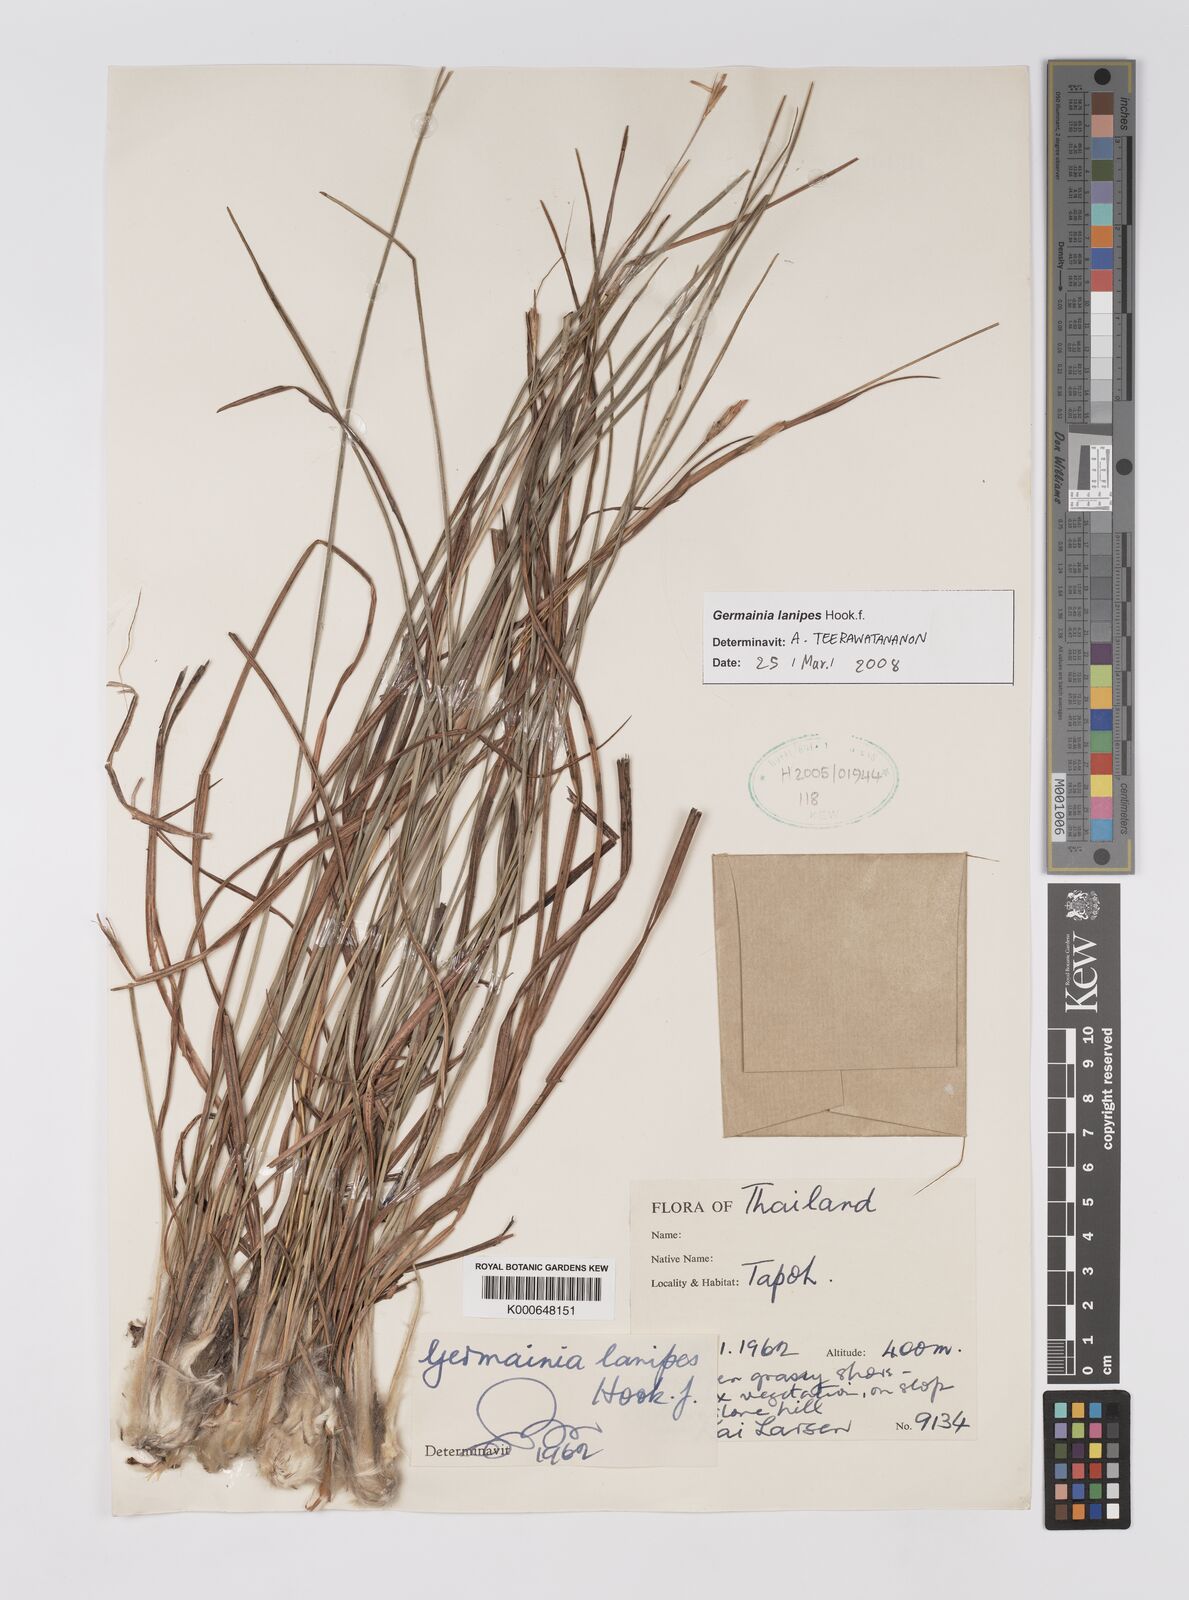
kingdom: Plantae
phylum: Tracheophyta
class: Liliopsida
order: Poales
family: Poaceae
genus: Germainia
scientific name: Germainia lanipes
